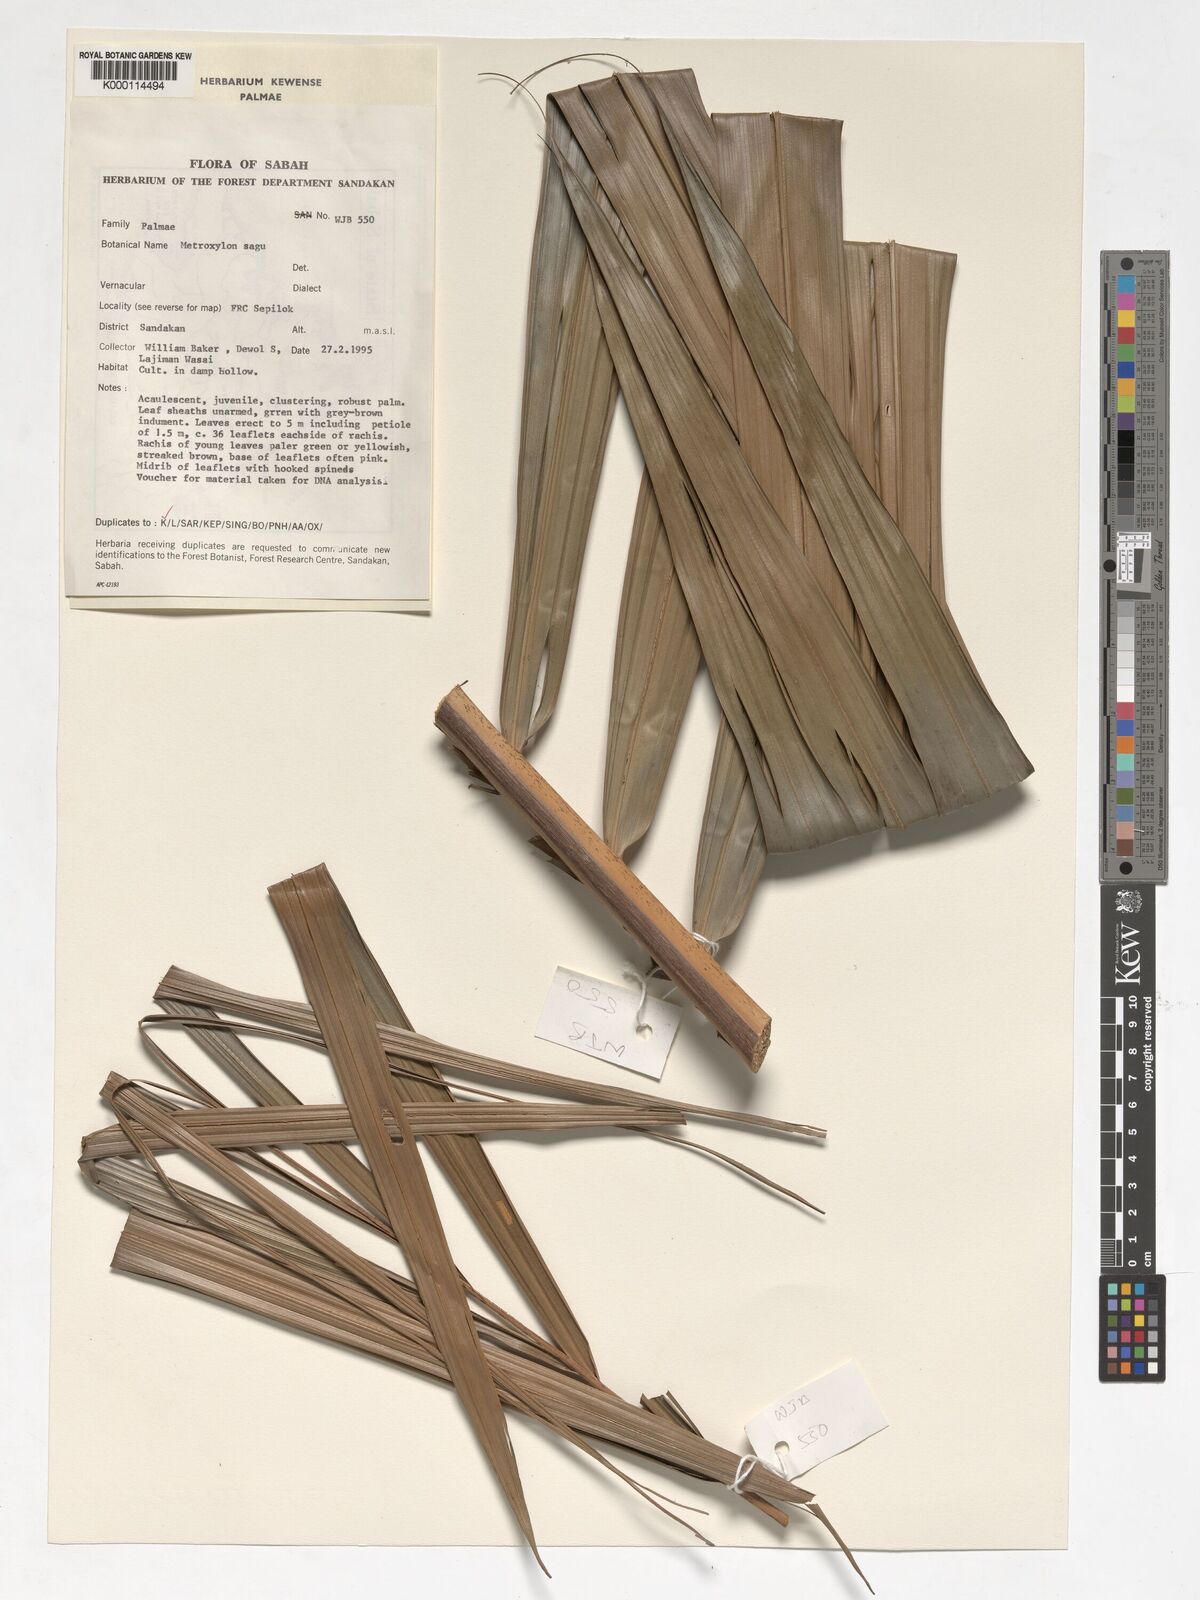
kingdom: Plantae
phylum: Tracheophyta
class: Liliopsida
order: Arecales
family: Arecaceae
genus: Metroxylon
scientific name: Metroxylon sagu
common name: Sago palm
